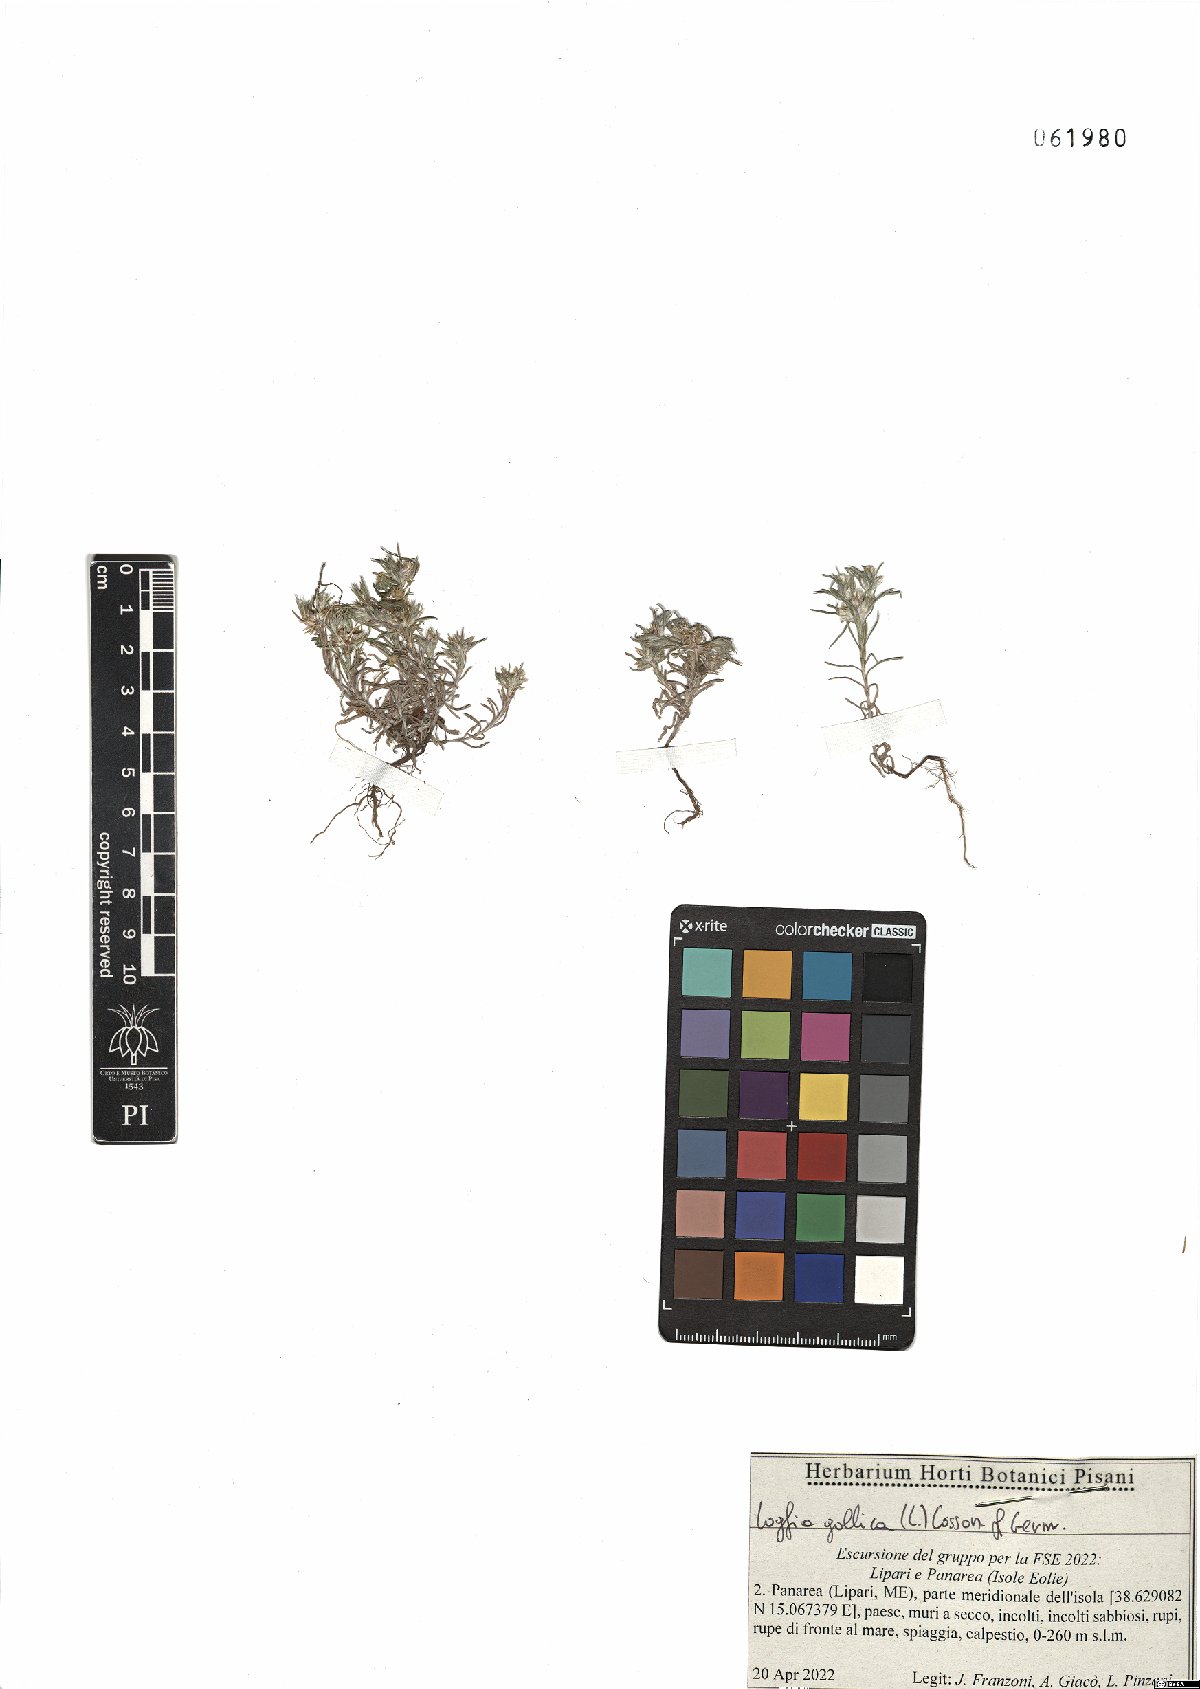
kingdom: Plantae
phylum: Tracheophyta
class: Magnoliopsida
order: Asterales
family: Asteraceae
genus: Logfia
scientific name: Logfia gallica
